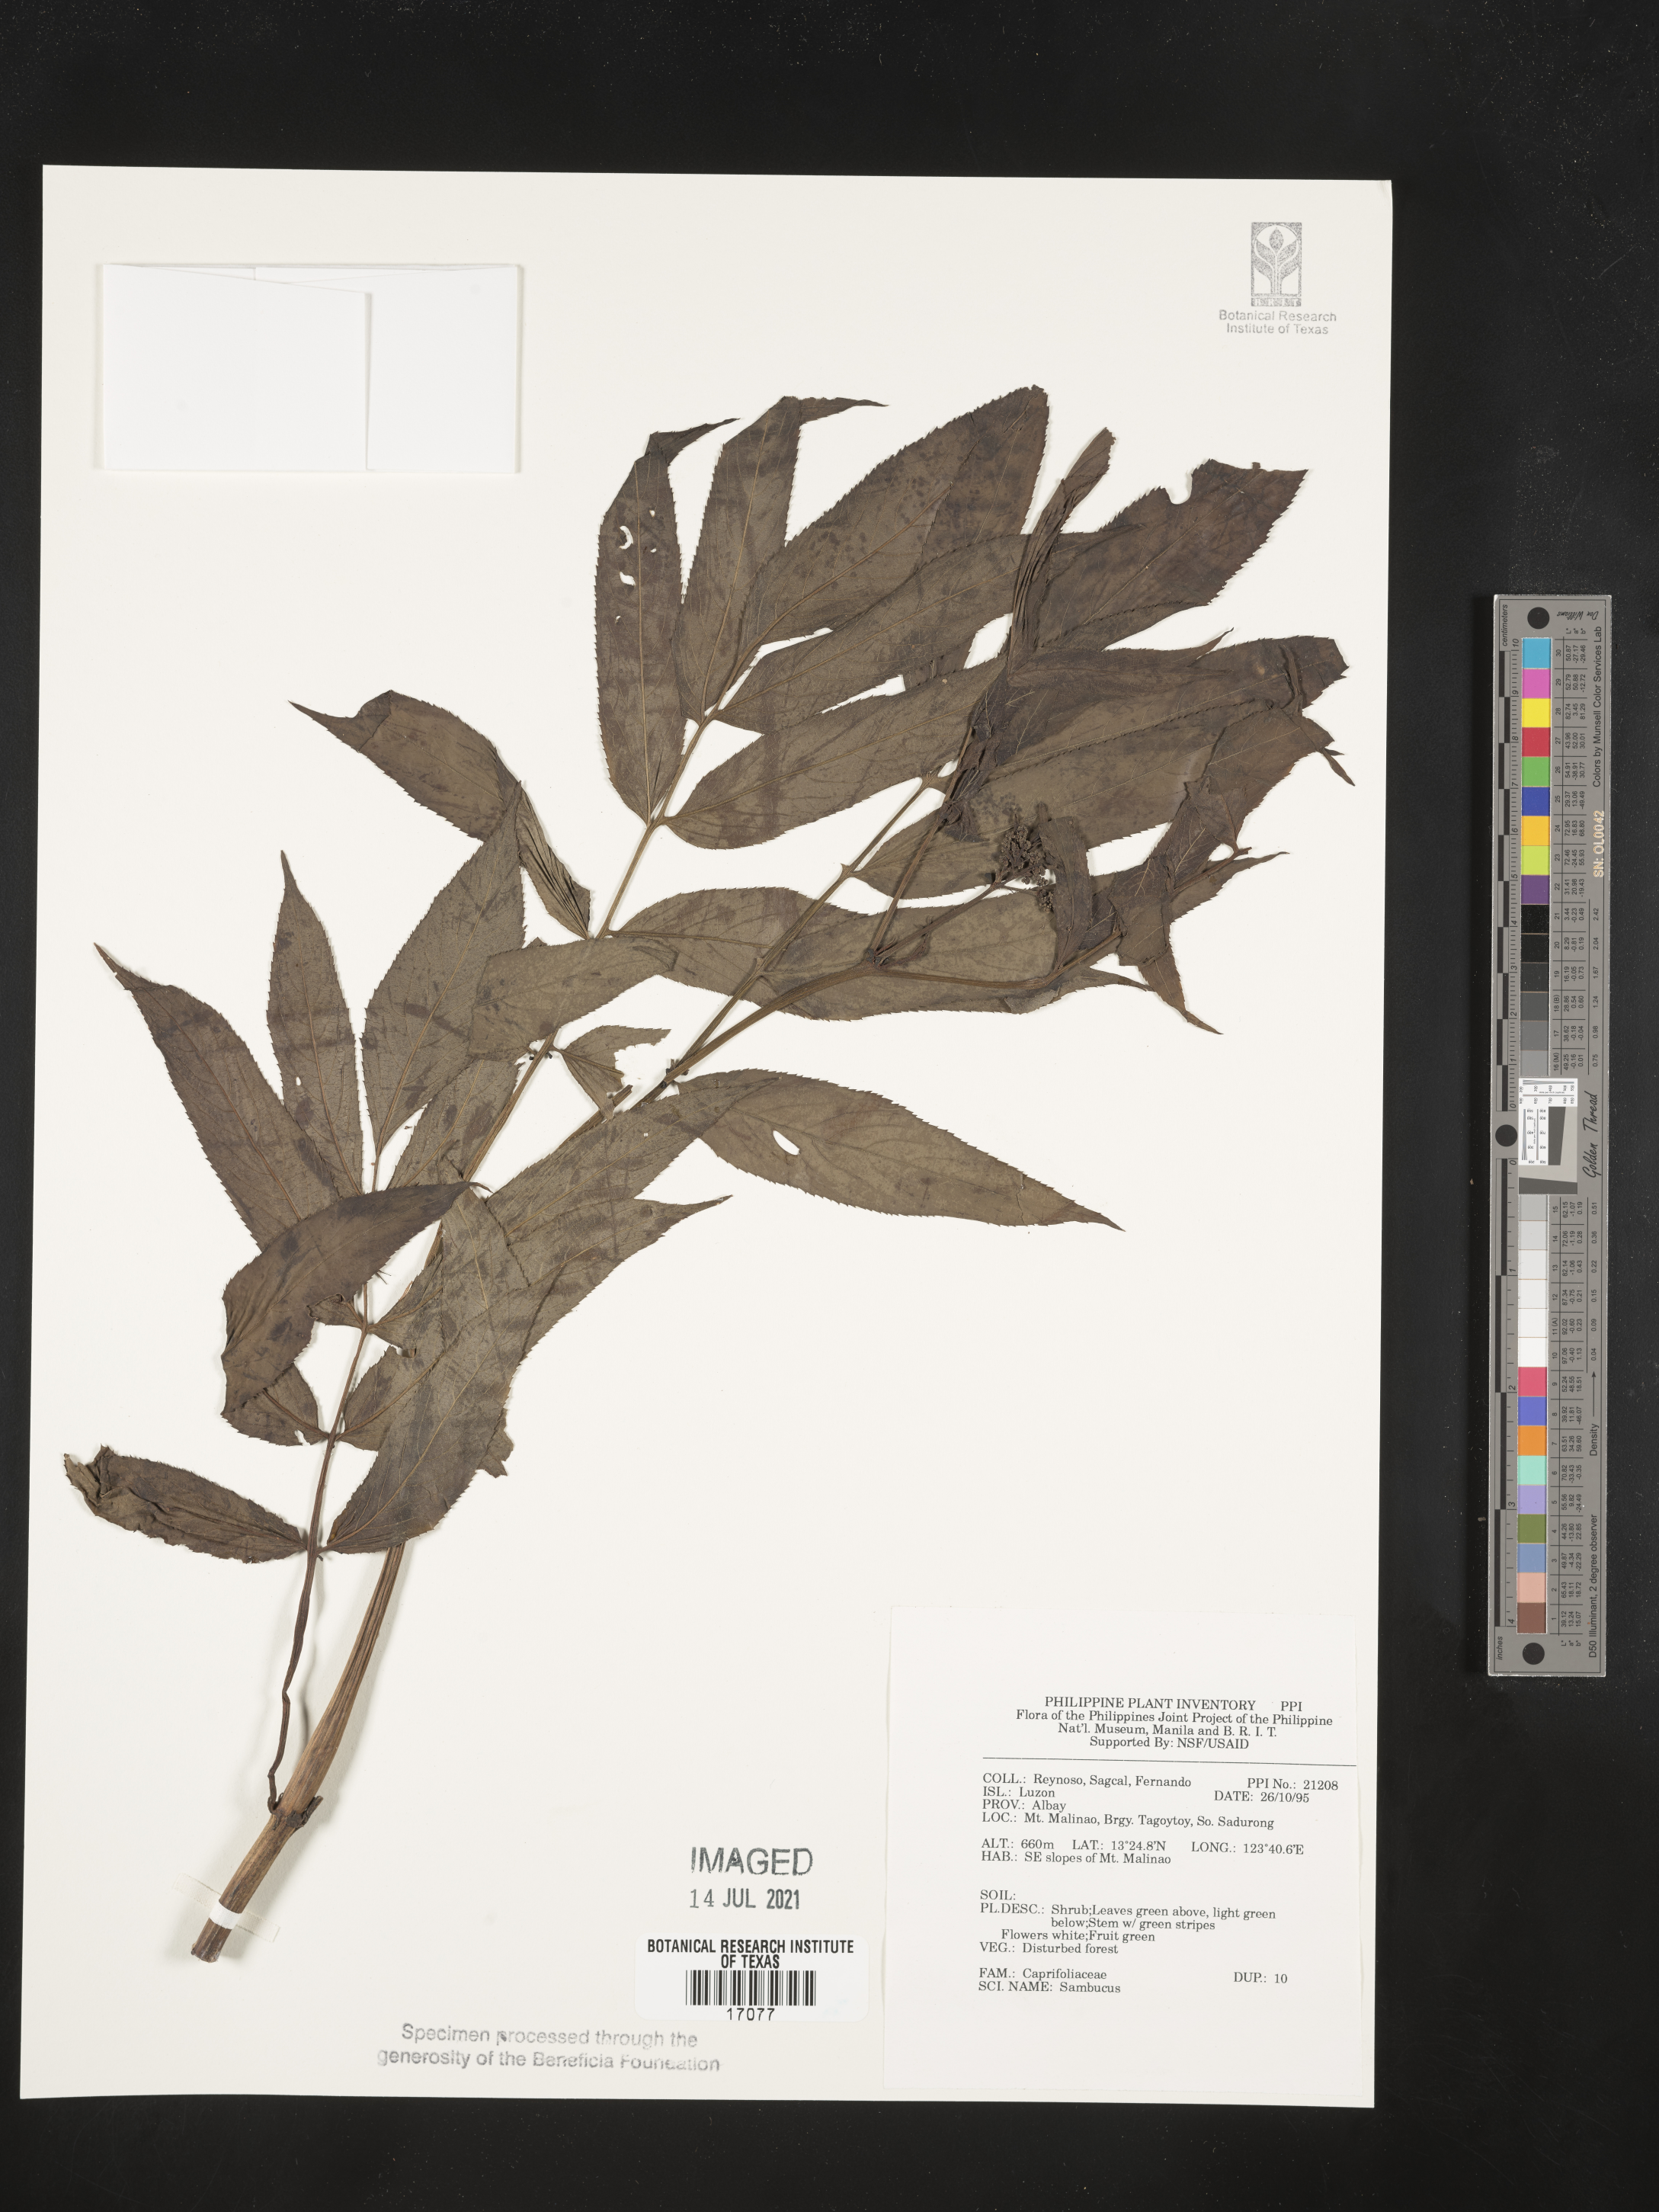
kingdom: Plantae
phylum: Tracheophyta
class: Magnoliopsida
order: Dipsacales
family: Viburnaceae
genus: Sambucus
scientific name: Sambucus
